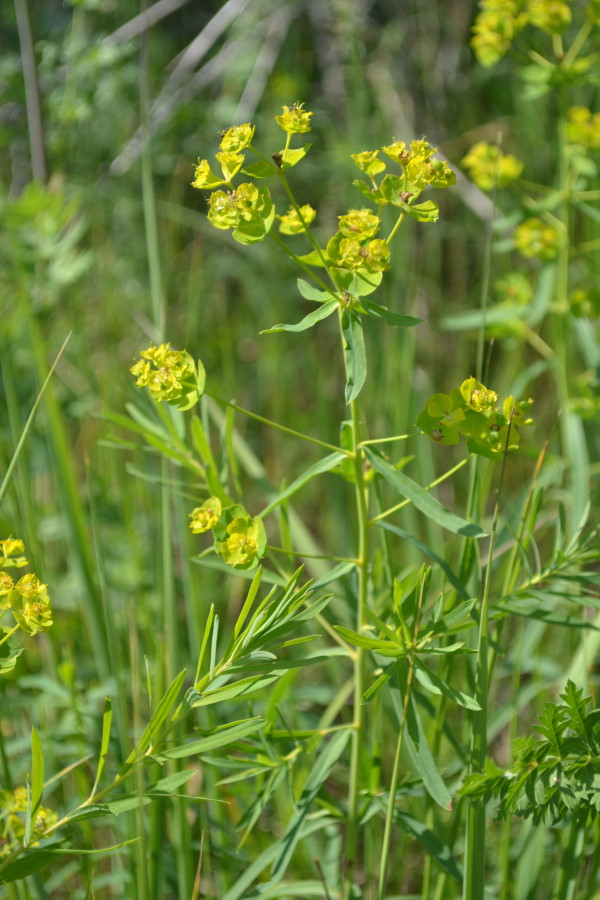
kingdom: Plantae
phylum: Tracheophyta
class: Magnoliopsida
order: Malpighiales
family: Euphorbiaceae
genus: Euphorbia
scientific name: Euphorbia virgata
